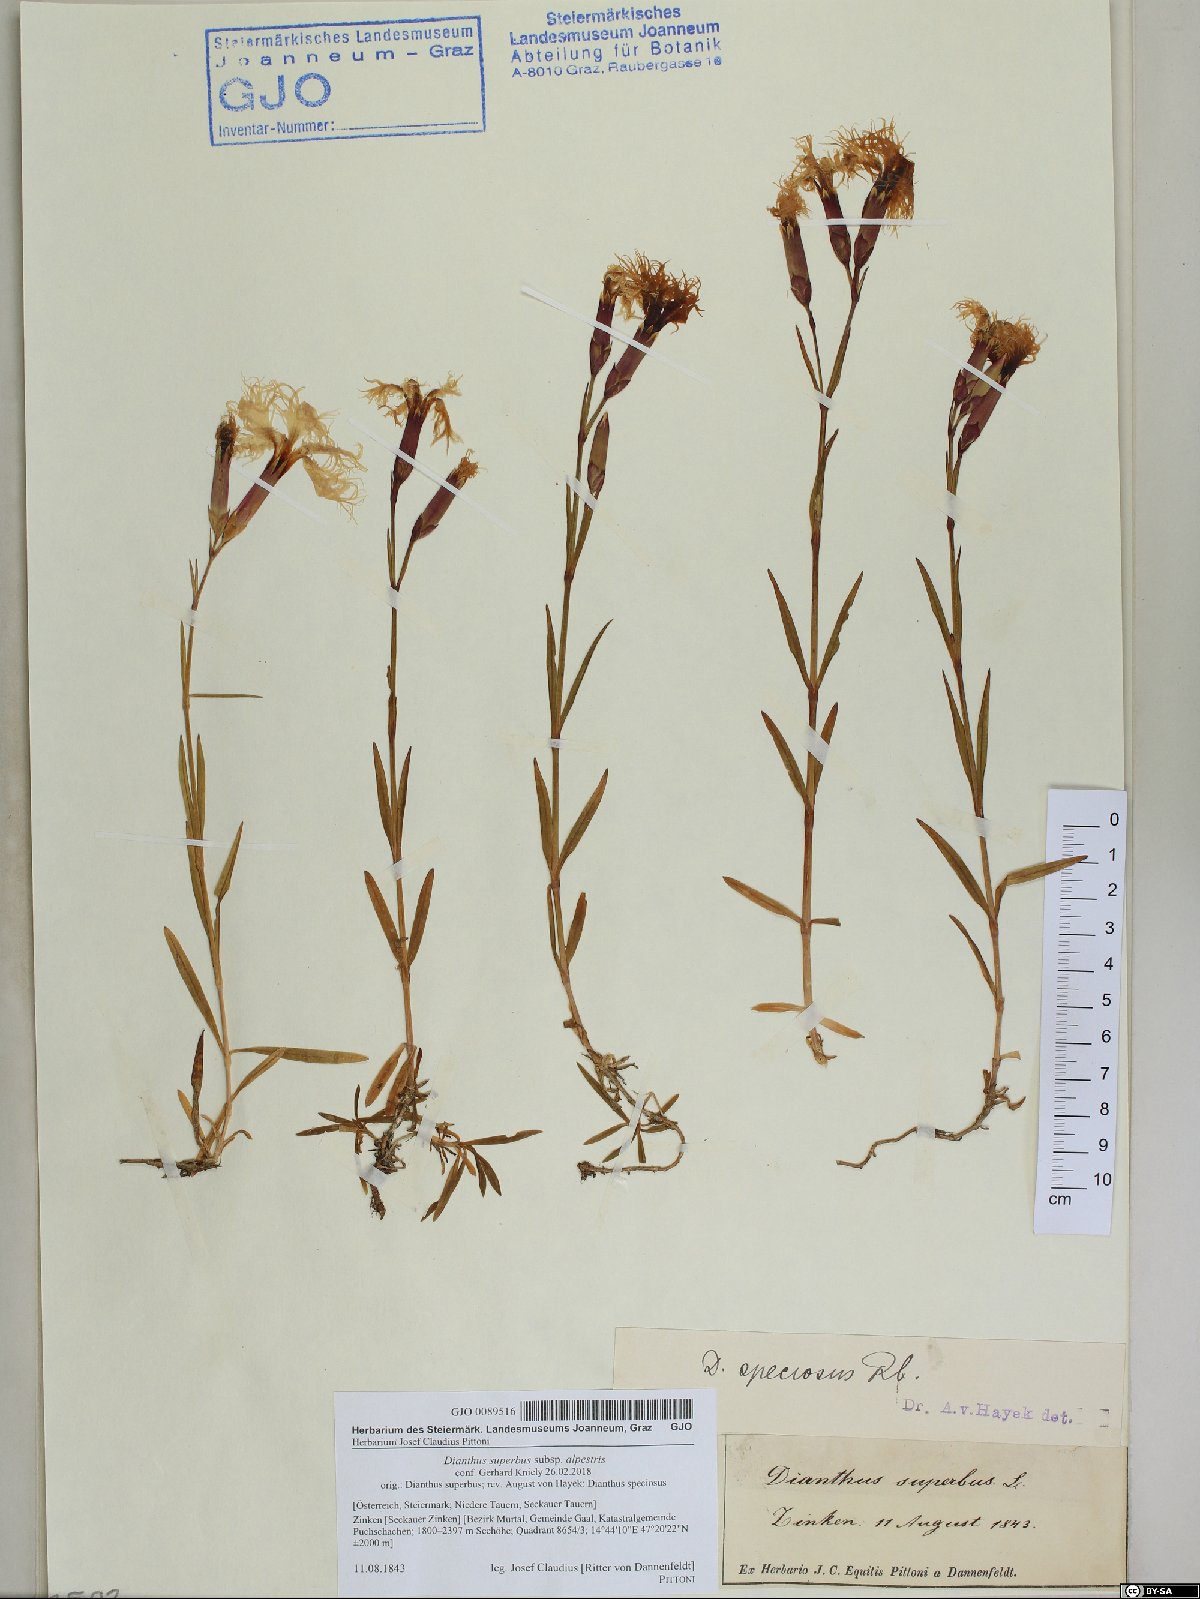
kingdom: Plantae
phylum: Tracheophyta
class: Magnoliopsida
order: Caryophyllales
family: Caryophyllaceae
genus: Dianthus
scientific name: Dianthus superbus
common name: Fringed pink
